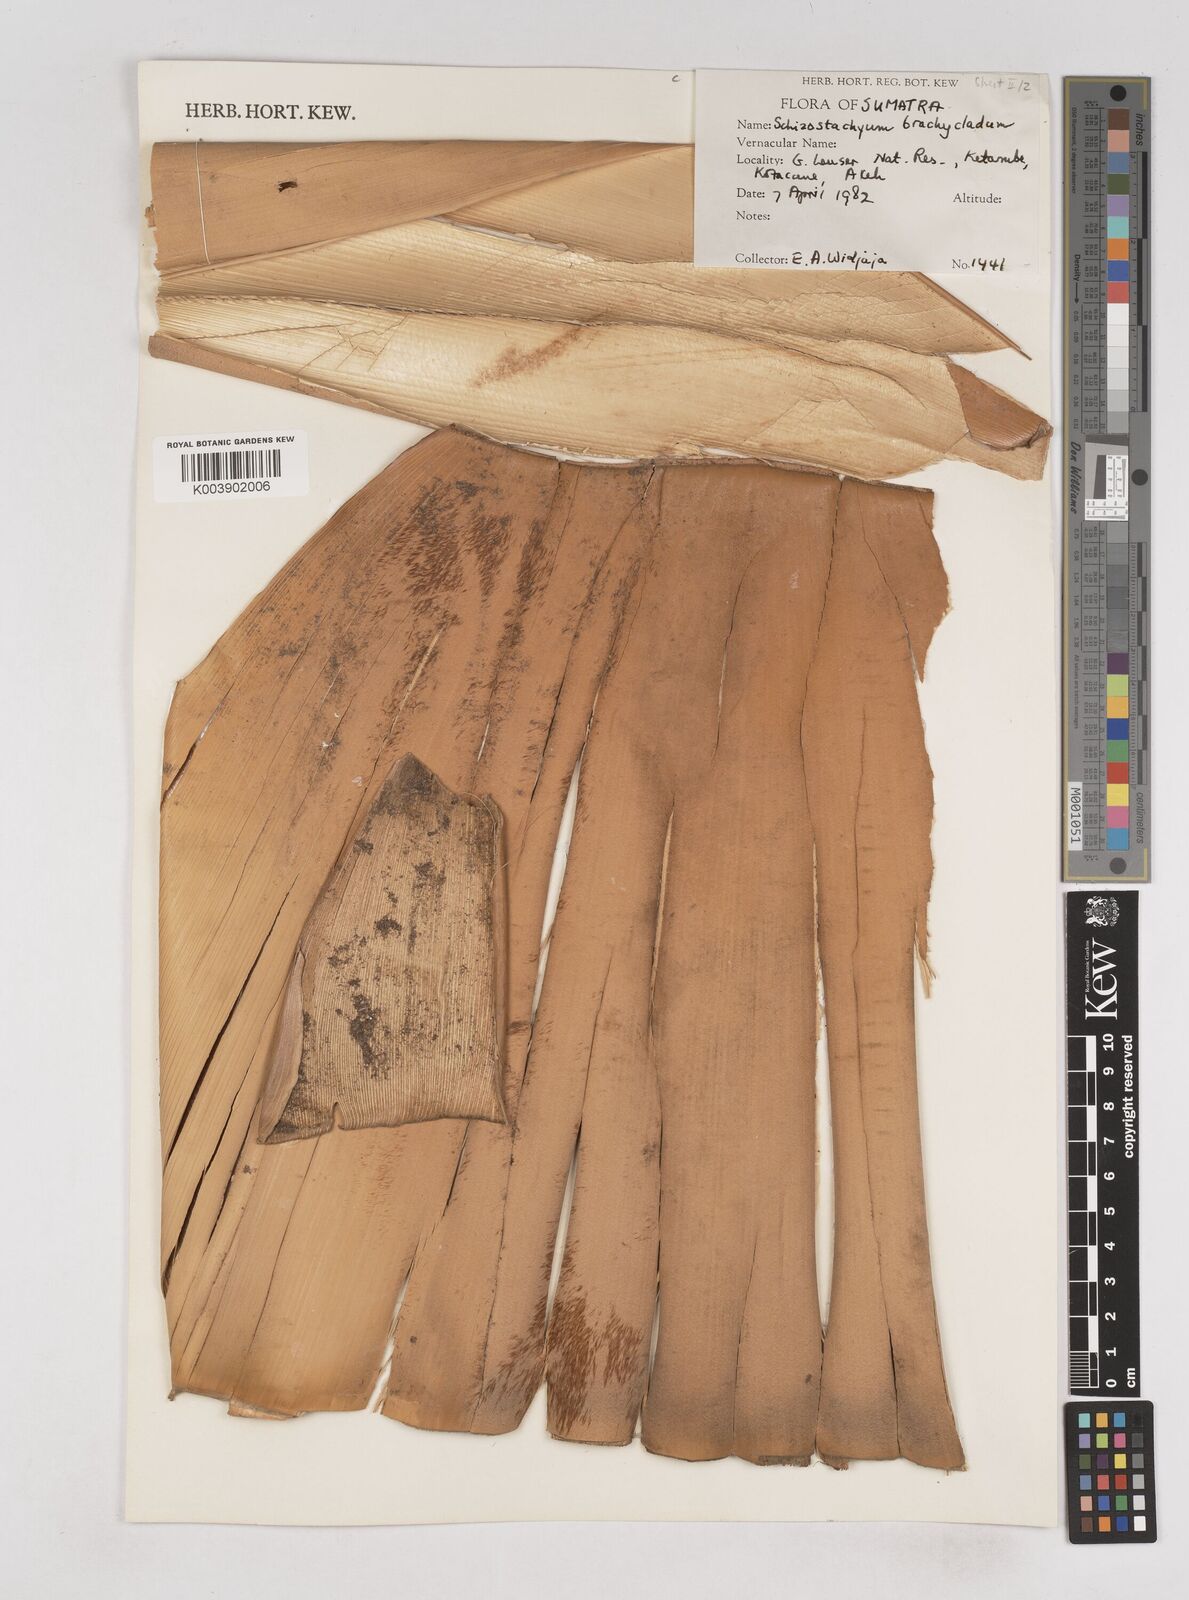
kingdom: Plantae
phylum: Tracheophyta
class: Liliopsida
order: Poales
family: Poaceae
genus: Schizostachyum
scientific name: Schizostachyum brachycladum
